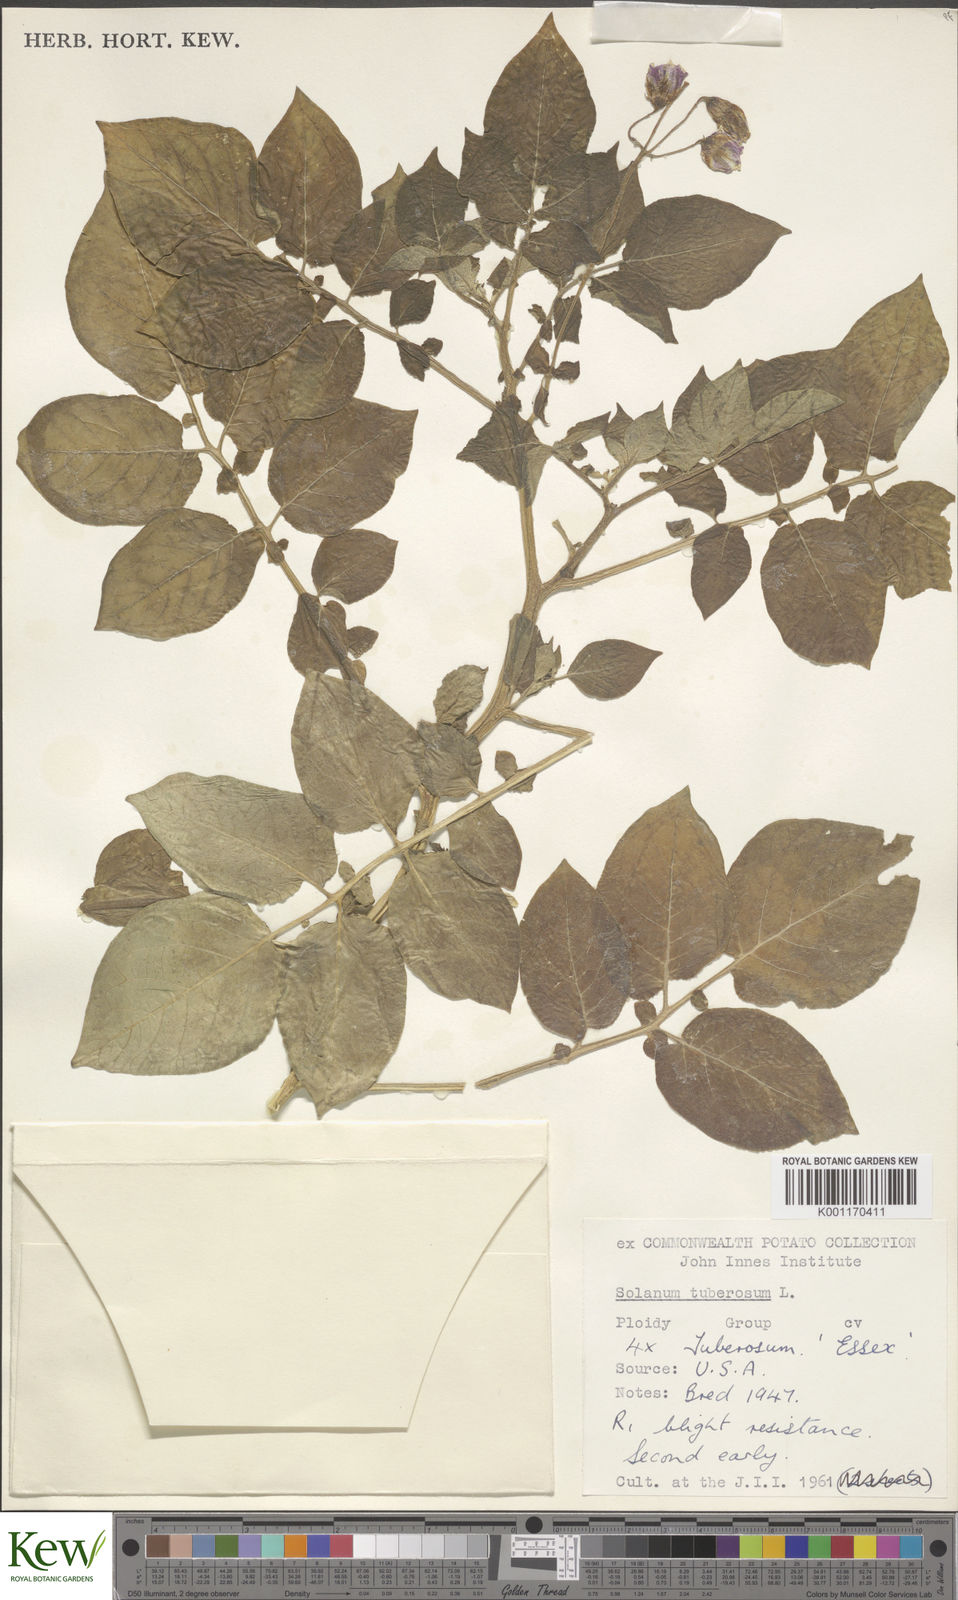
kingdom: Plantae
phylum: Tracheophyta
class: Magnoliopsida
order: Solanales
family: Solanaceae
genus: Solanum
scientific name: Solanum tuberosum
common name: Potato
